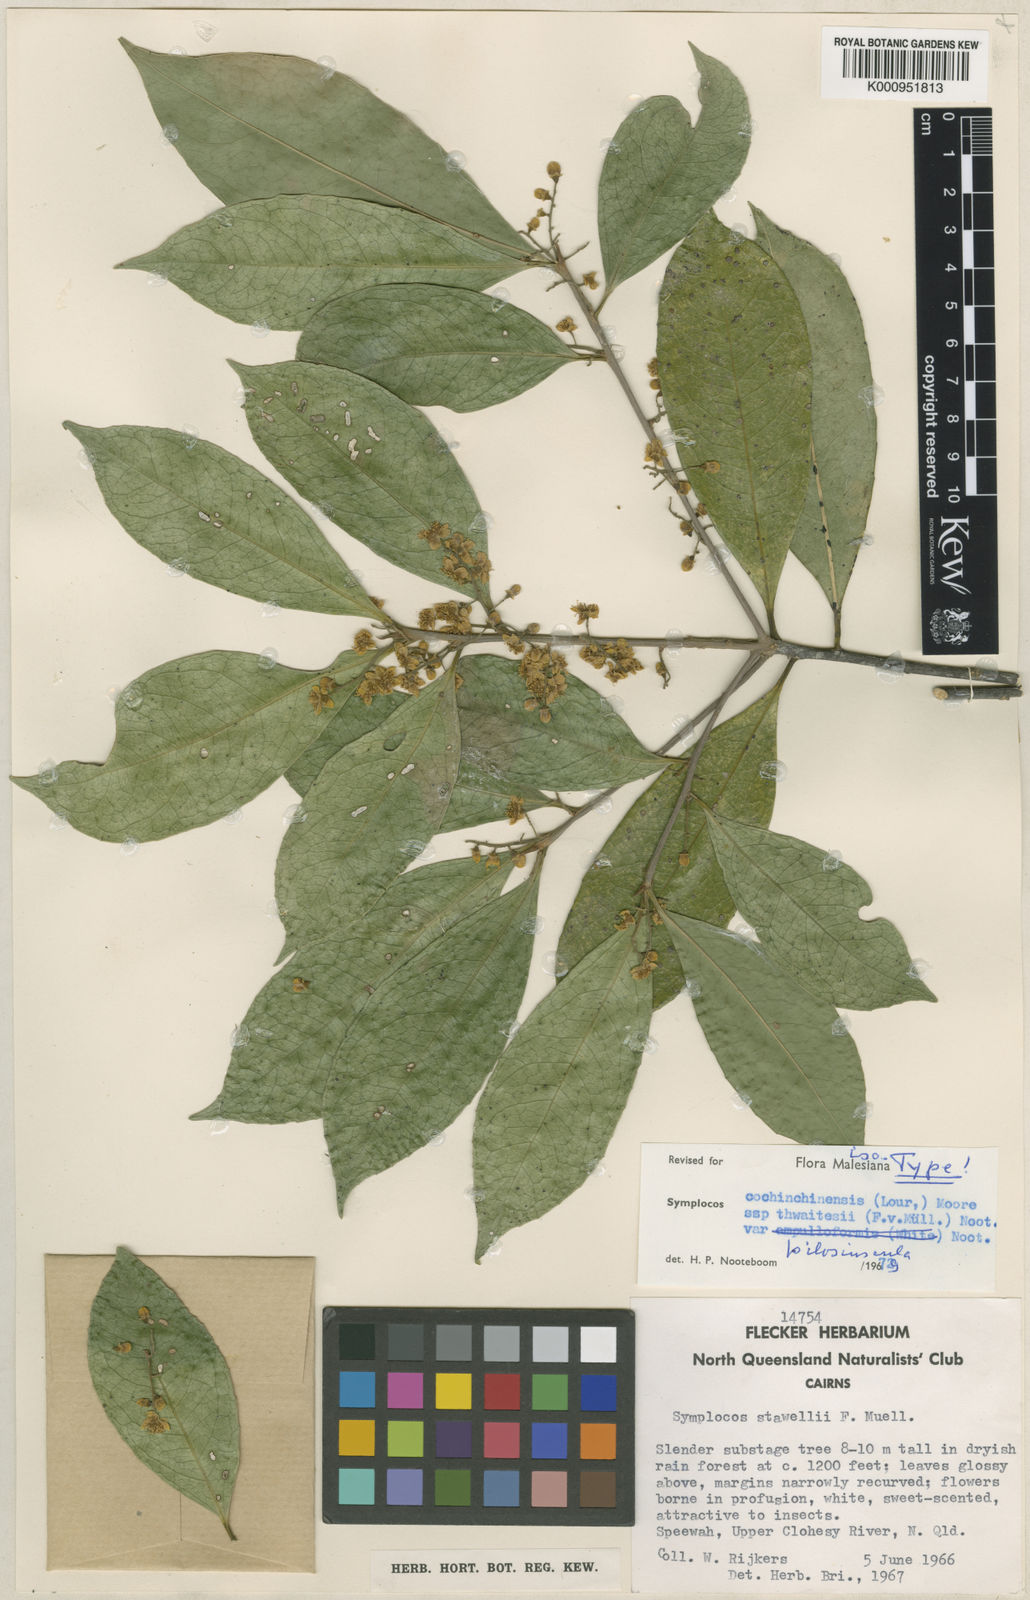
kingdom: Plantae
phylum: Tracheophyta
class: Magnoliopsida
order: Ericales
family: Symplocaceae
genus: Symplocos
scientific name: Symplocos cochinchinensis
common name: Buff hazelwood
